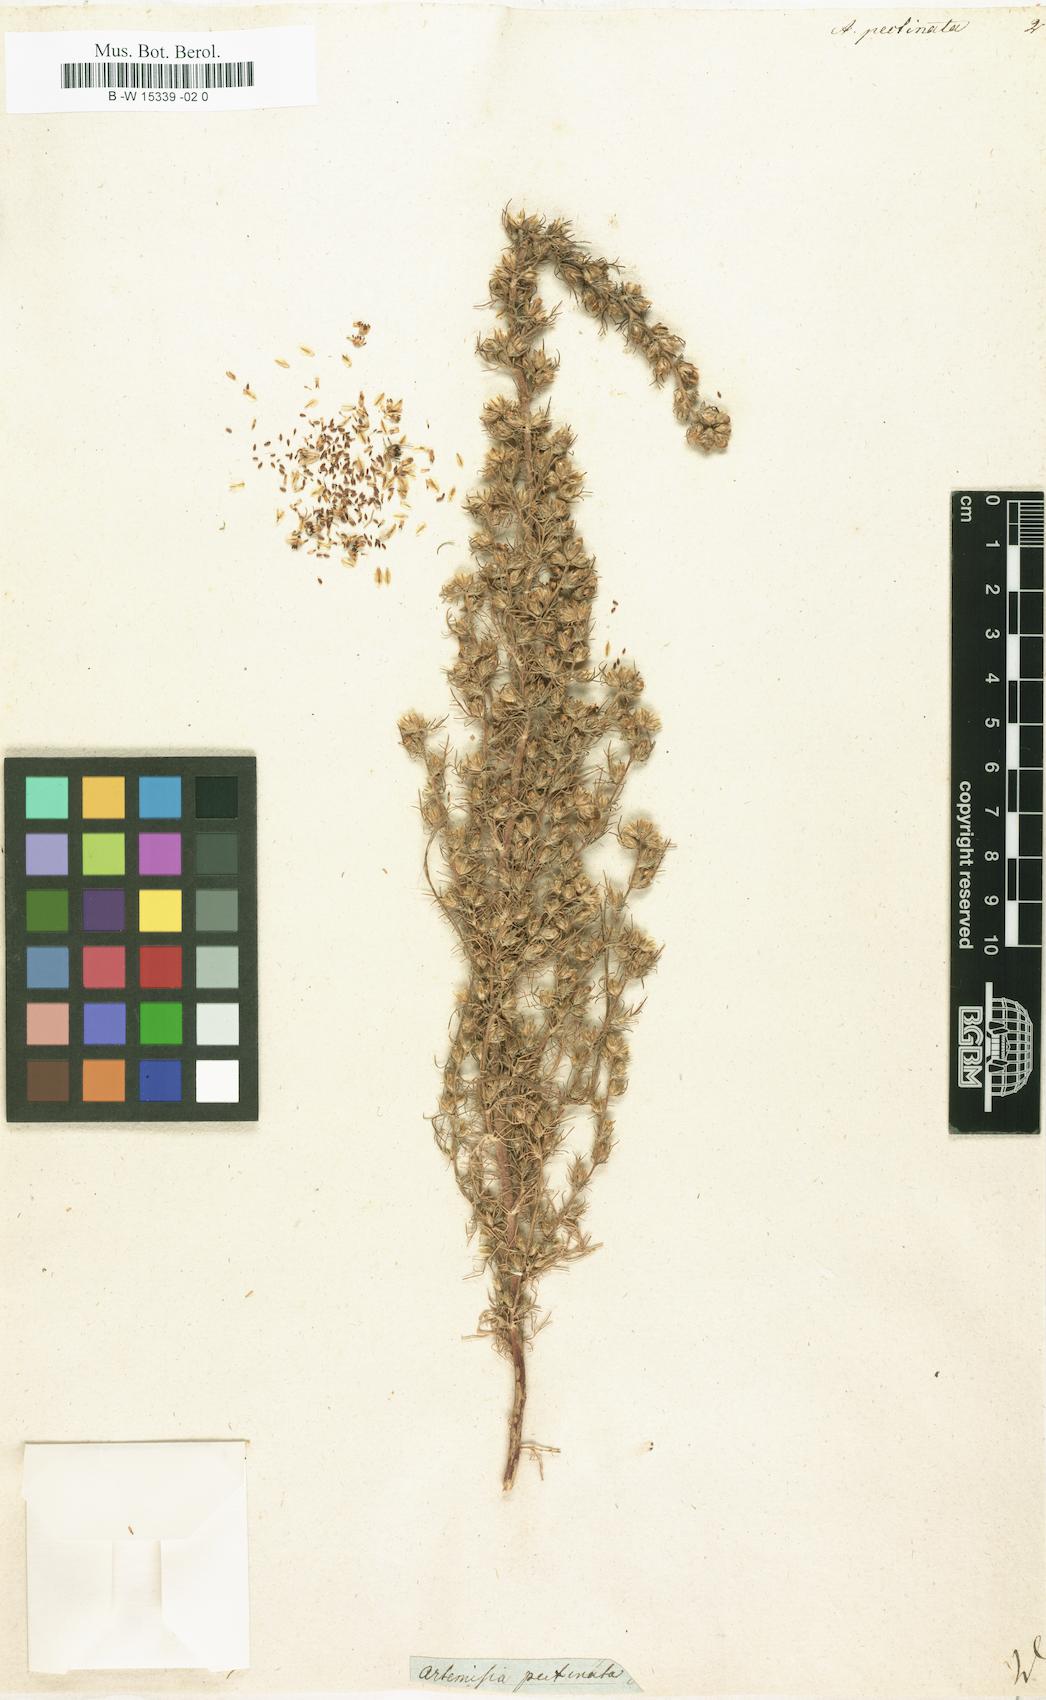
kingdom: Plantae
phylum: Tracheophyta
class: Magnoliopsida
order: Asterales
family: Asteraceae
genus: Neopallasia
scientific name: Neopallasia pectinata
